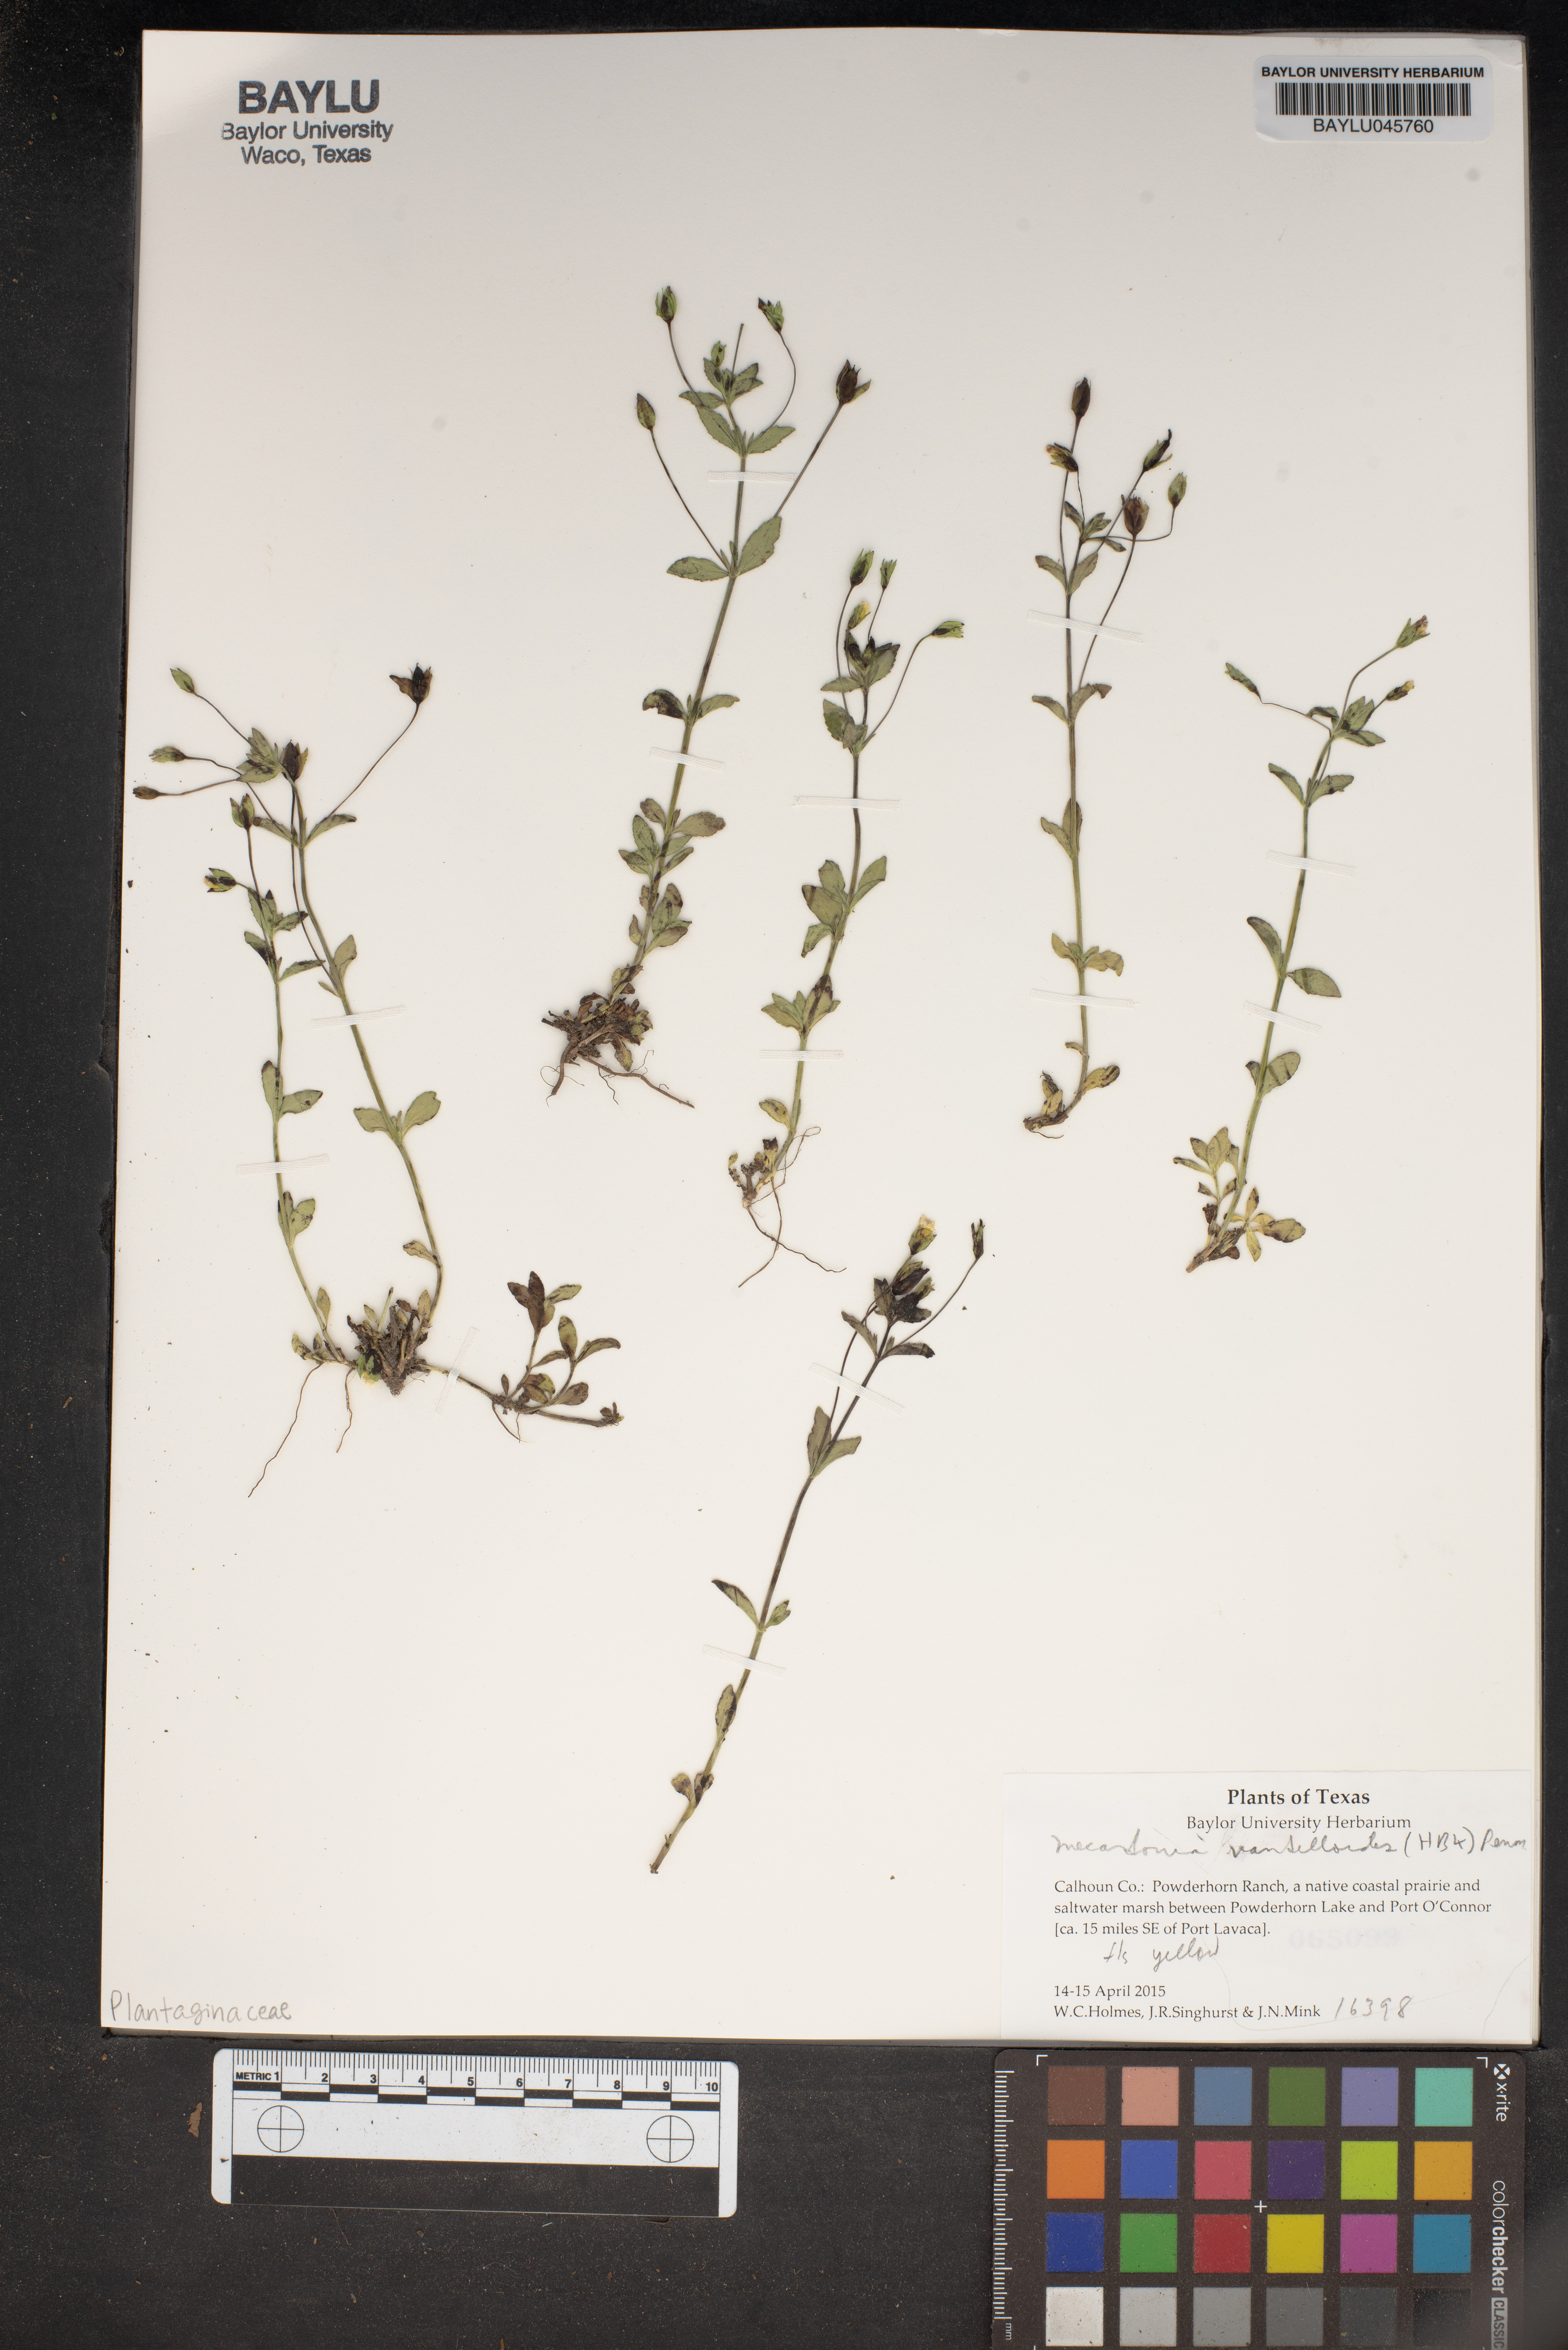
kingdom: Plantae
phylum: Tracheophyta
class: Magnoliopsida
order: Lamiales
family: Plantaginaceae
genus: Mecardonia
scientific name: Mecardonia procumbens
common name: Baby jump-up
